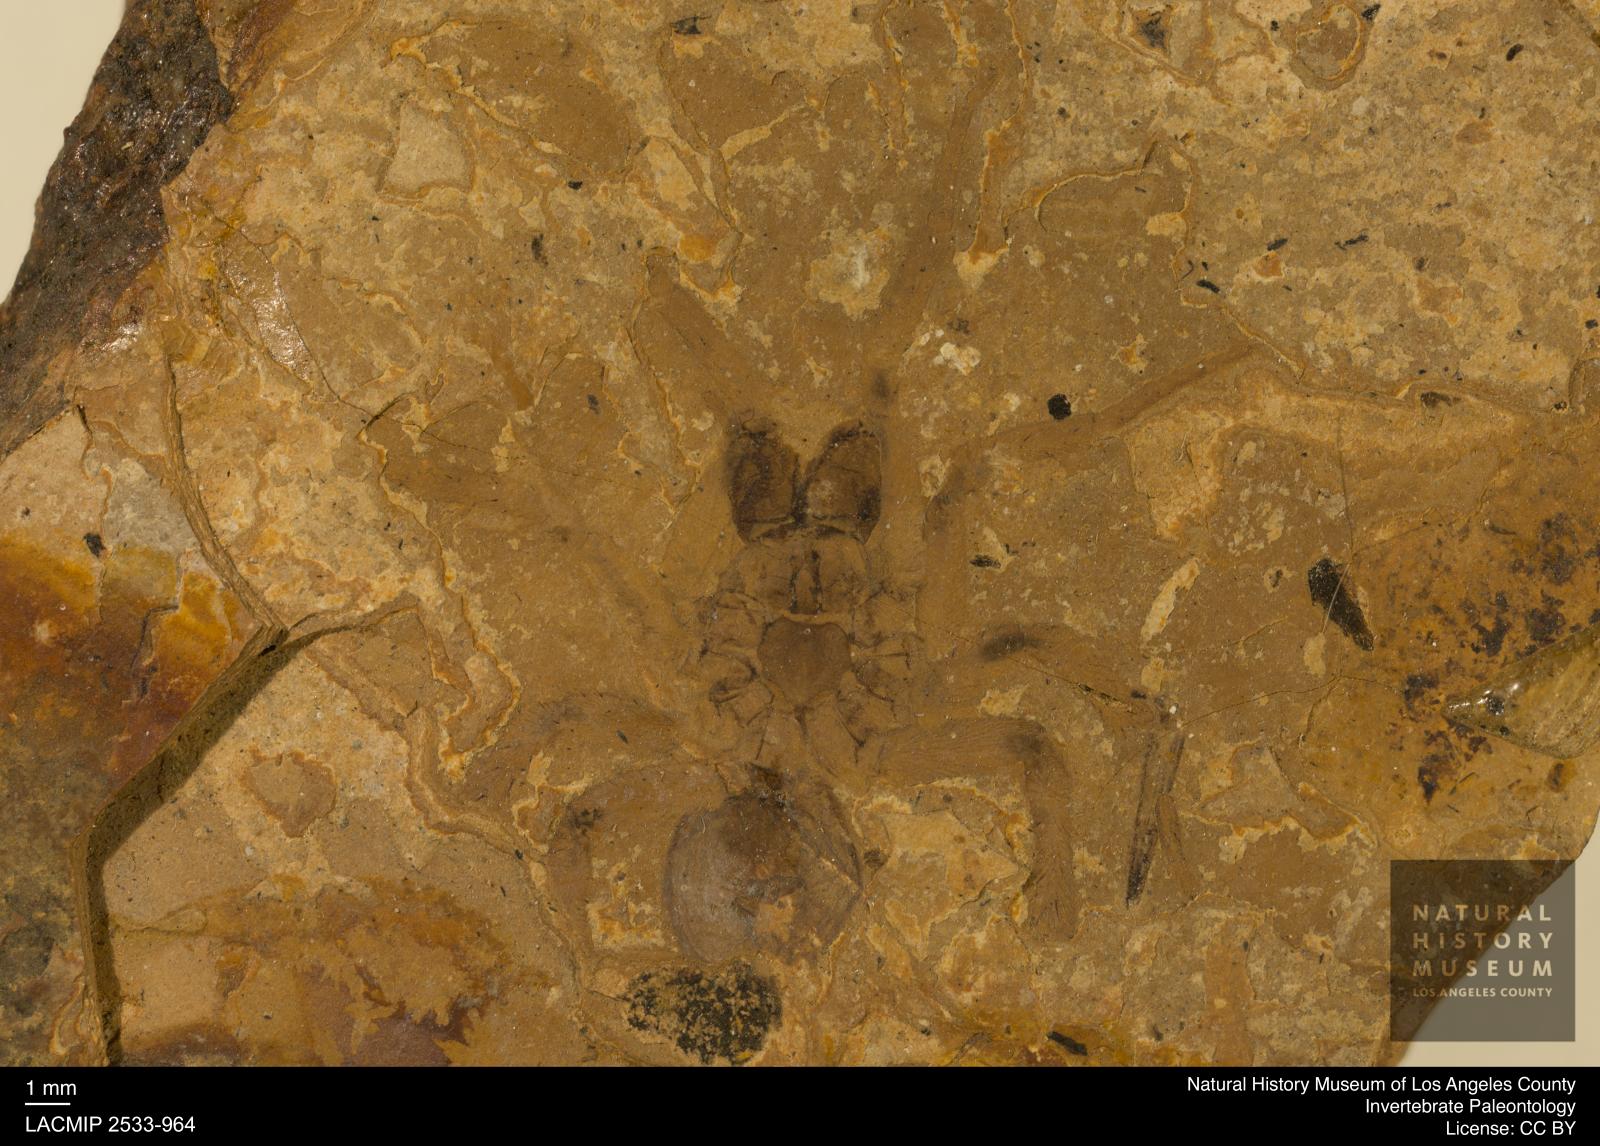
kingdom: Animalia
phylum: Arthropoda
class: Arachnida
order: Araneae
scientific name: Araneae
